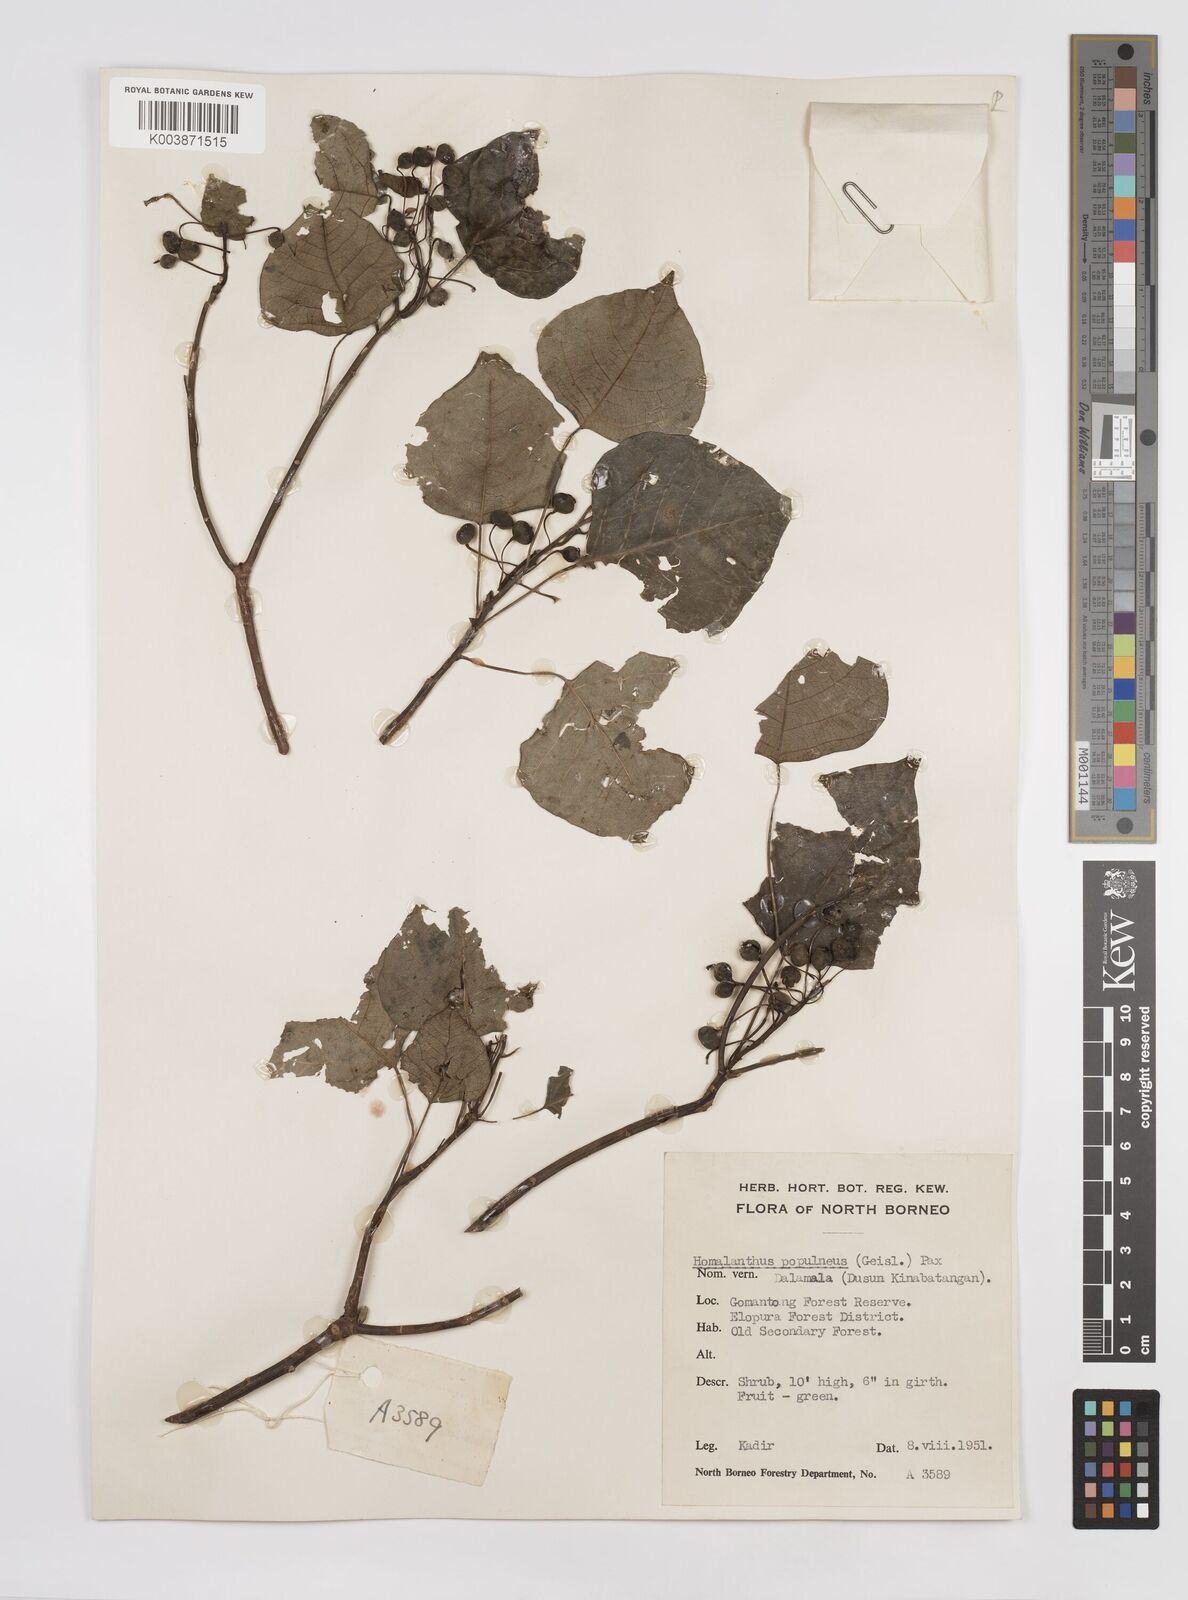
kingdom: Plantae
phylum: Tracheophyta
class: Magnoliopsida
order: Malpighiales
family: Euphorbiaceae
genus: Homalanthus
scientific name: Homalanthus populneus
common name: Spurge
